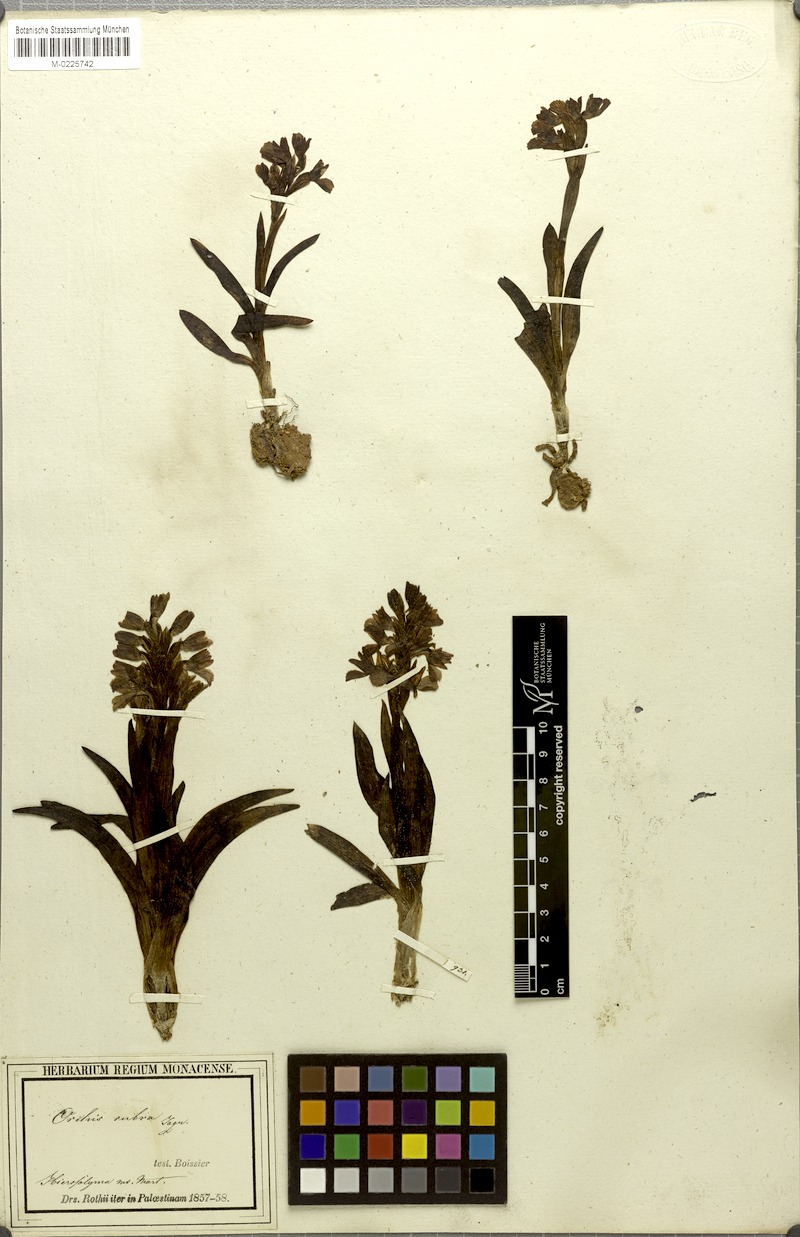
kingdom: Plantae
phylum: Tracheophyta
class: Liliopsida
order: Asparagales
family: Orchidaceae
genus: Anacamptis
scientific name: Anacamptis papilionacea
